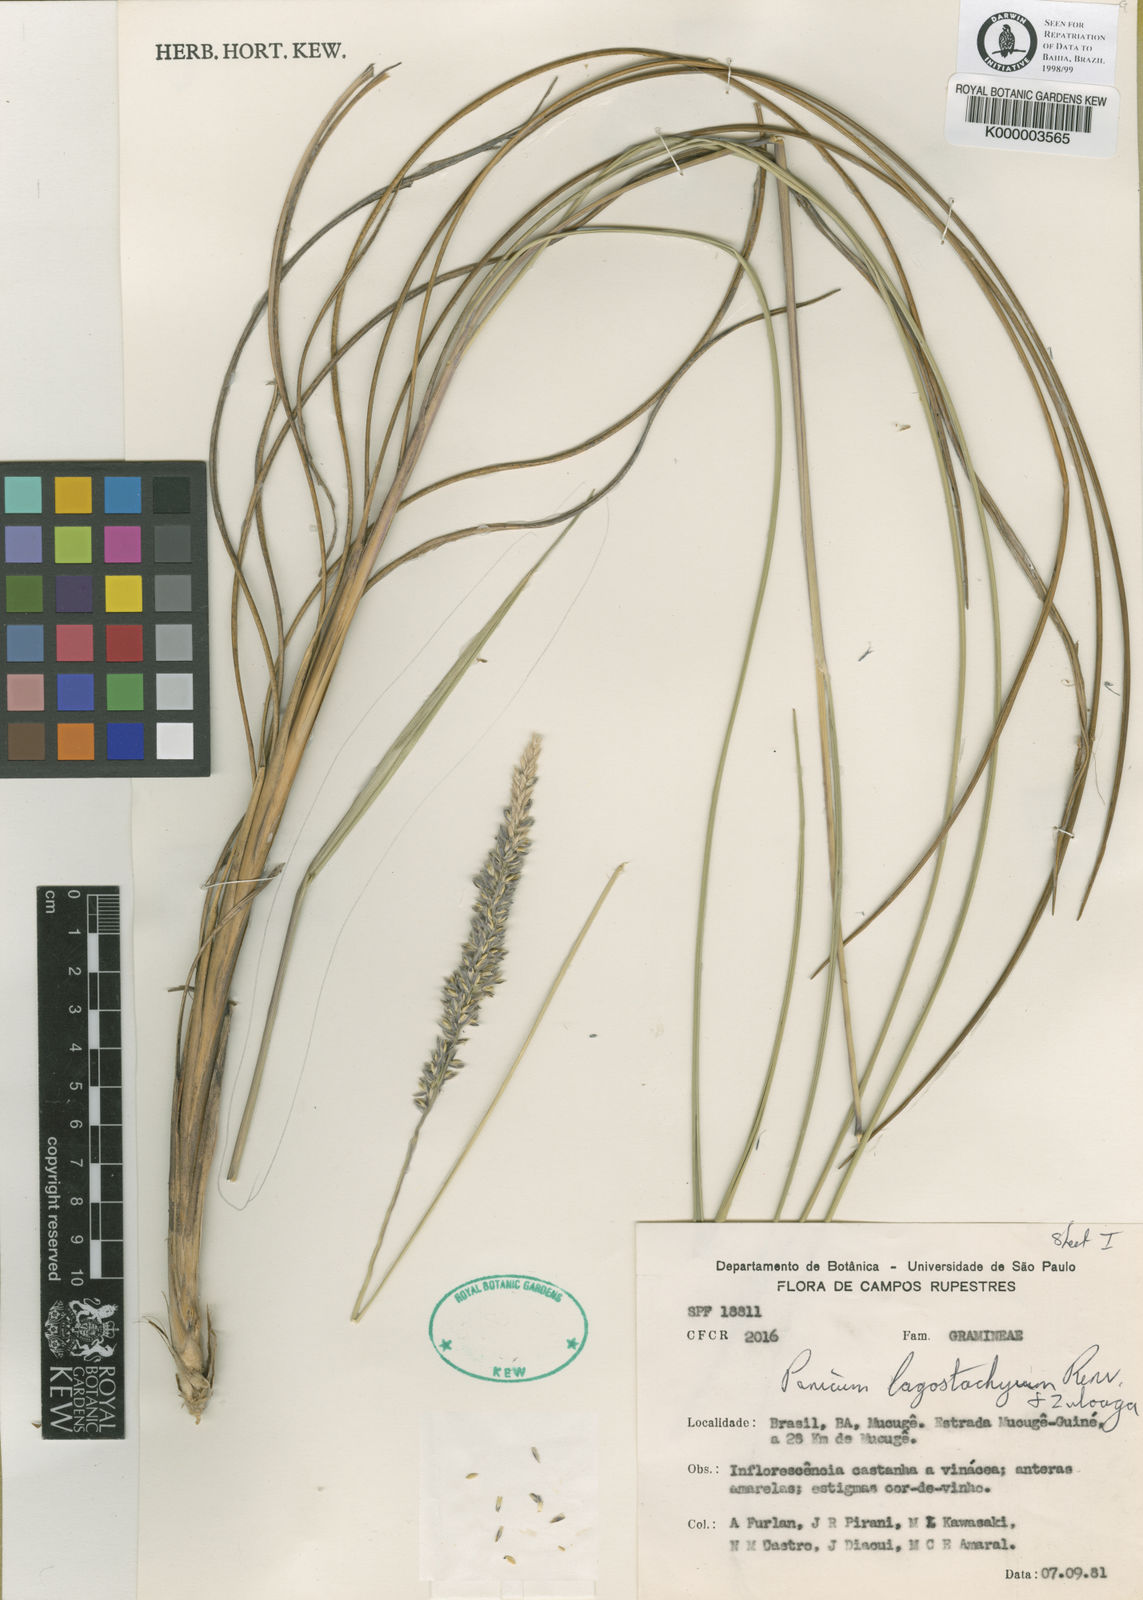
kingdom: Plantae
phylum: Tracheophyta
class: Liliopsida
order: Poales
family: Poaceae
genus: Renvoizea
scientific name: Renvoizea lagostachya
